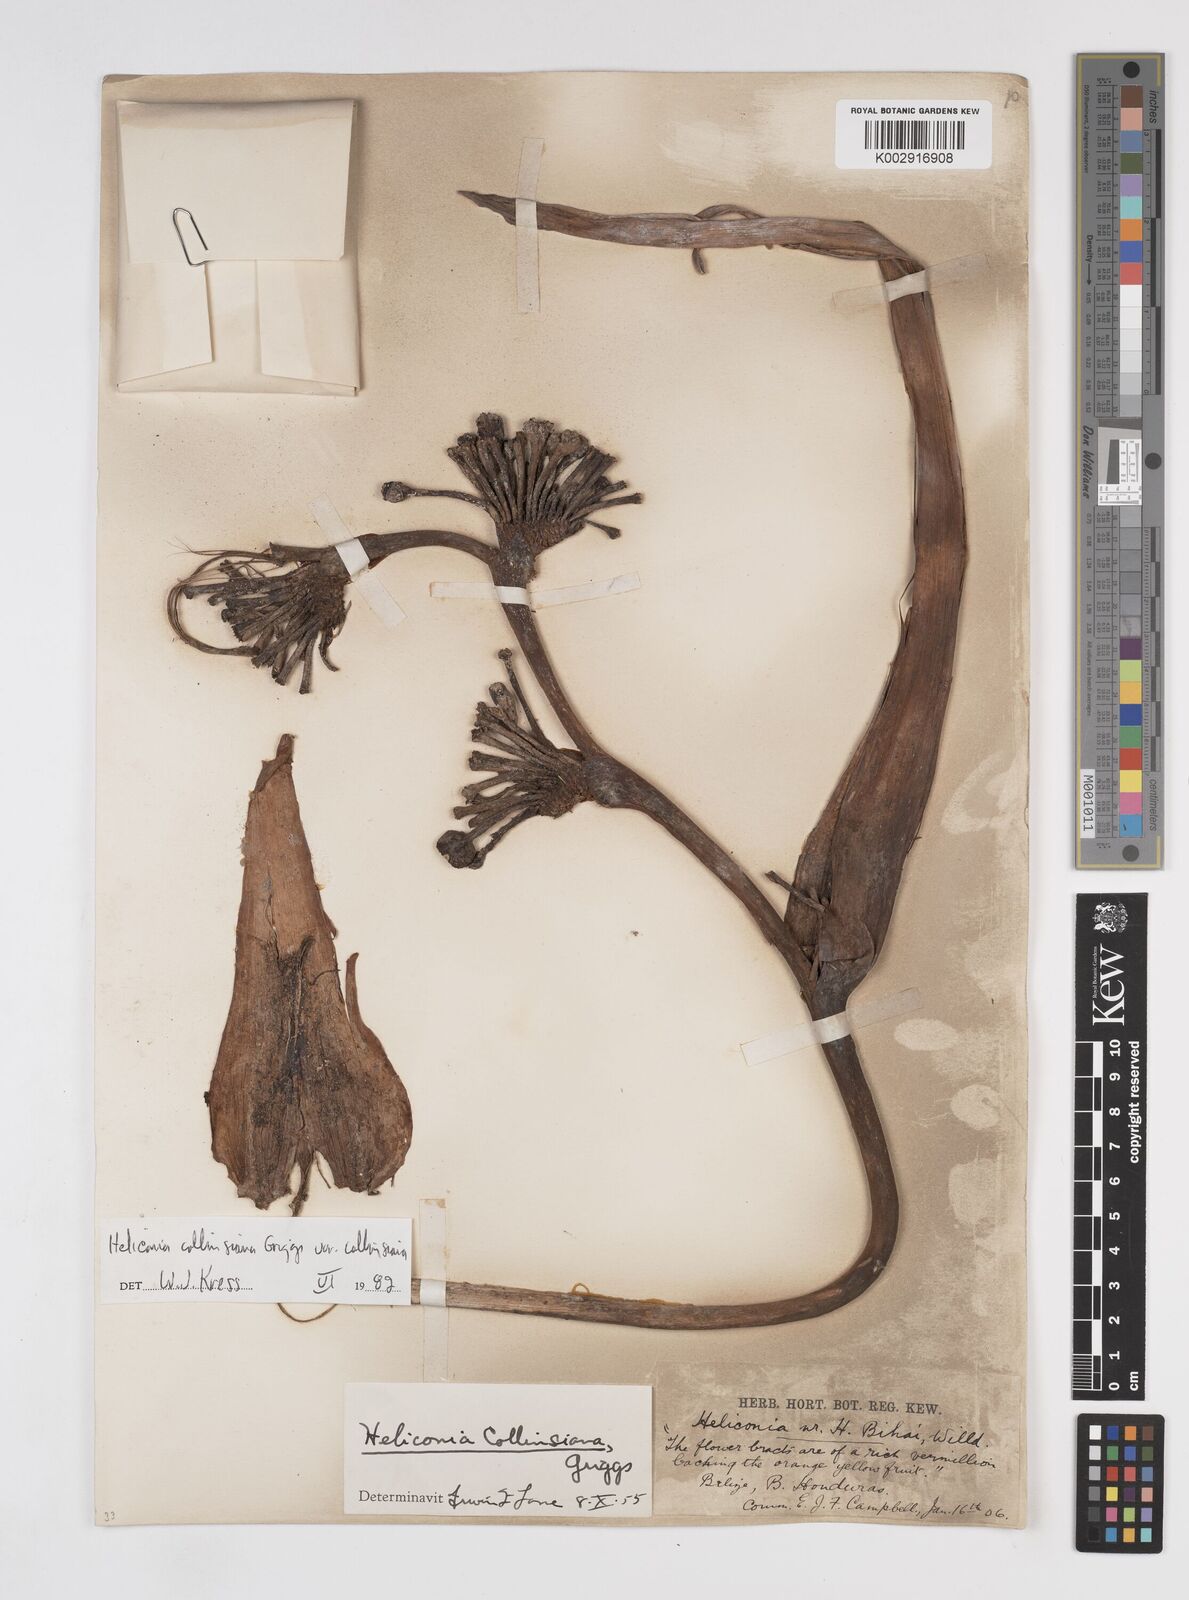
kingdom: Plantae
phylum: Tracheophyta
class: Liliopsida
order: Zingiberales
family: Heliconiaceae
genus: Heliconia
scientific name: Heliconia collinsiana
